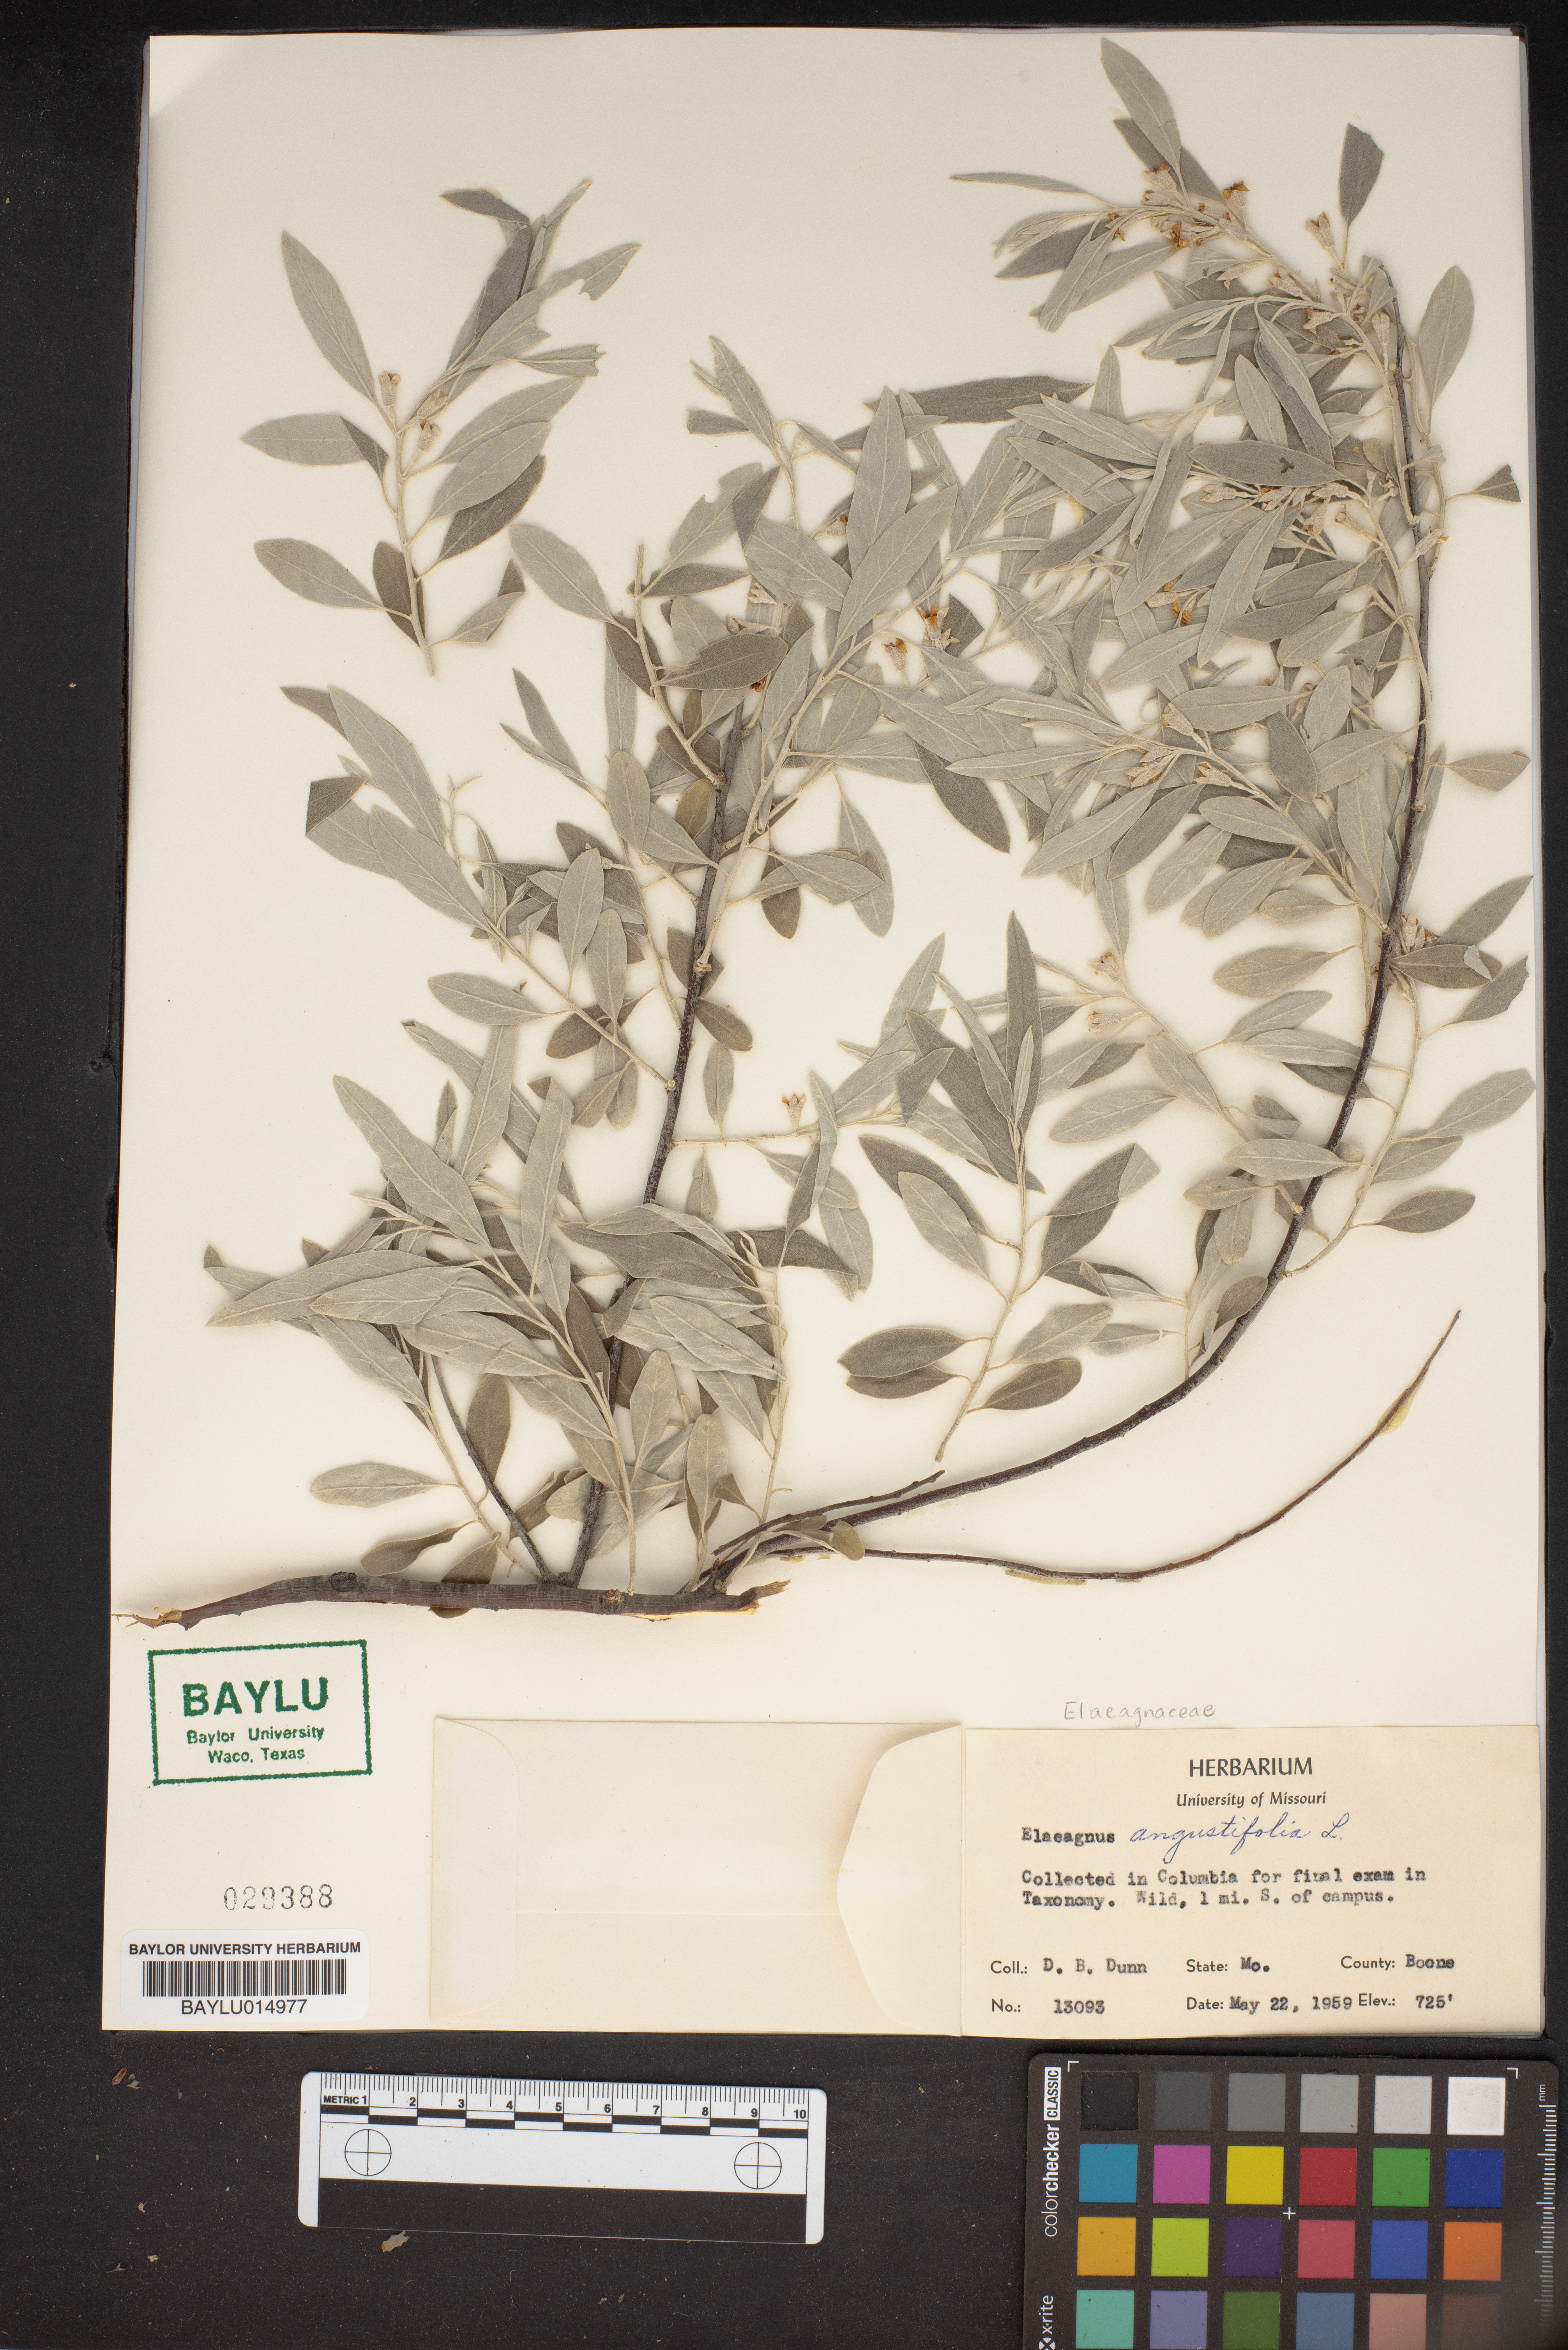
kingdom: Plantae
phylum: Tracheophyta
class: Magnoliopsida
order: Rosales
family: Elaeagnaceae
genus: Elaeagnus
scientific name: Elaeagnus angustifolia
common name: Russian olive
